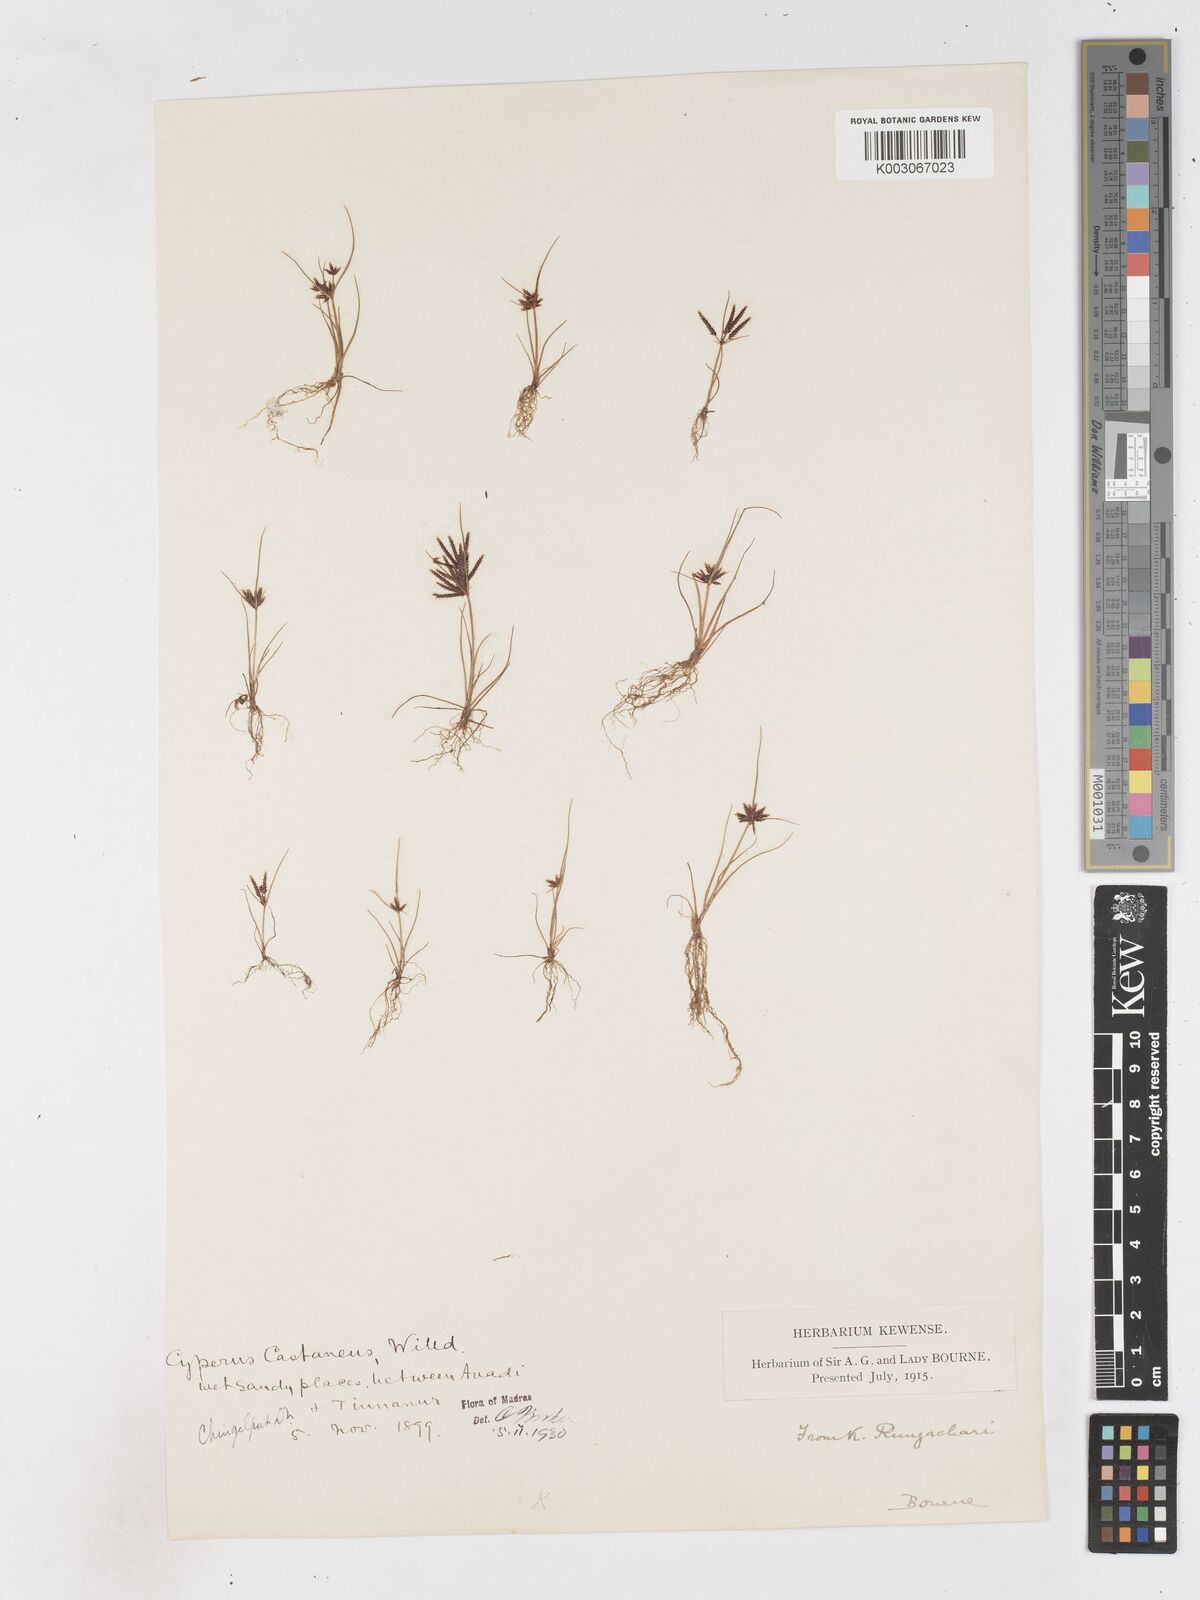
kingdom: Plantae
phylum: Tracheophyta
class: Liliopsida
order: Poales
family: Cyperaceae
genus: Cyperus
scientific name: Cyperus castaneus
